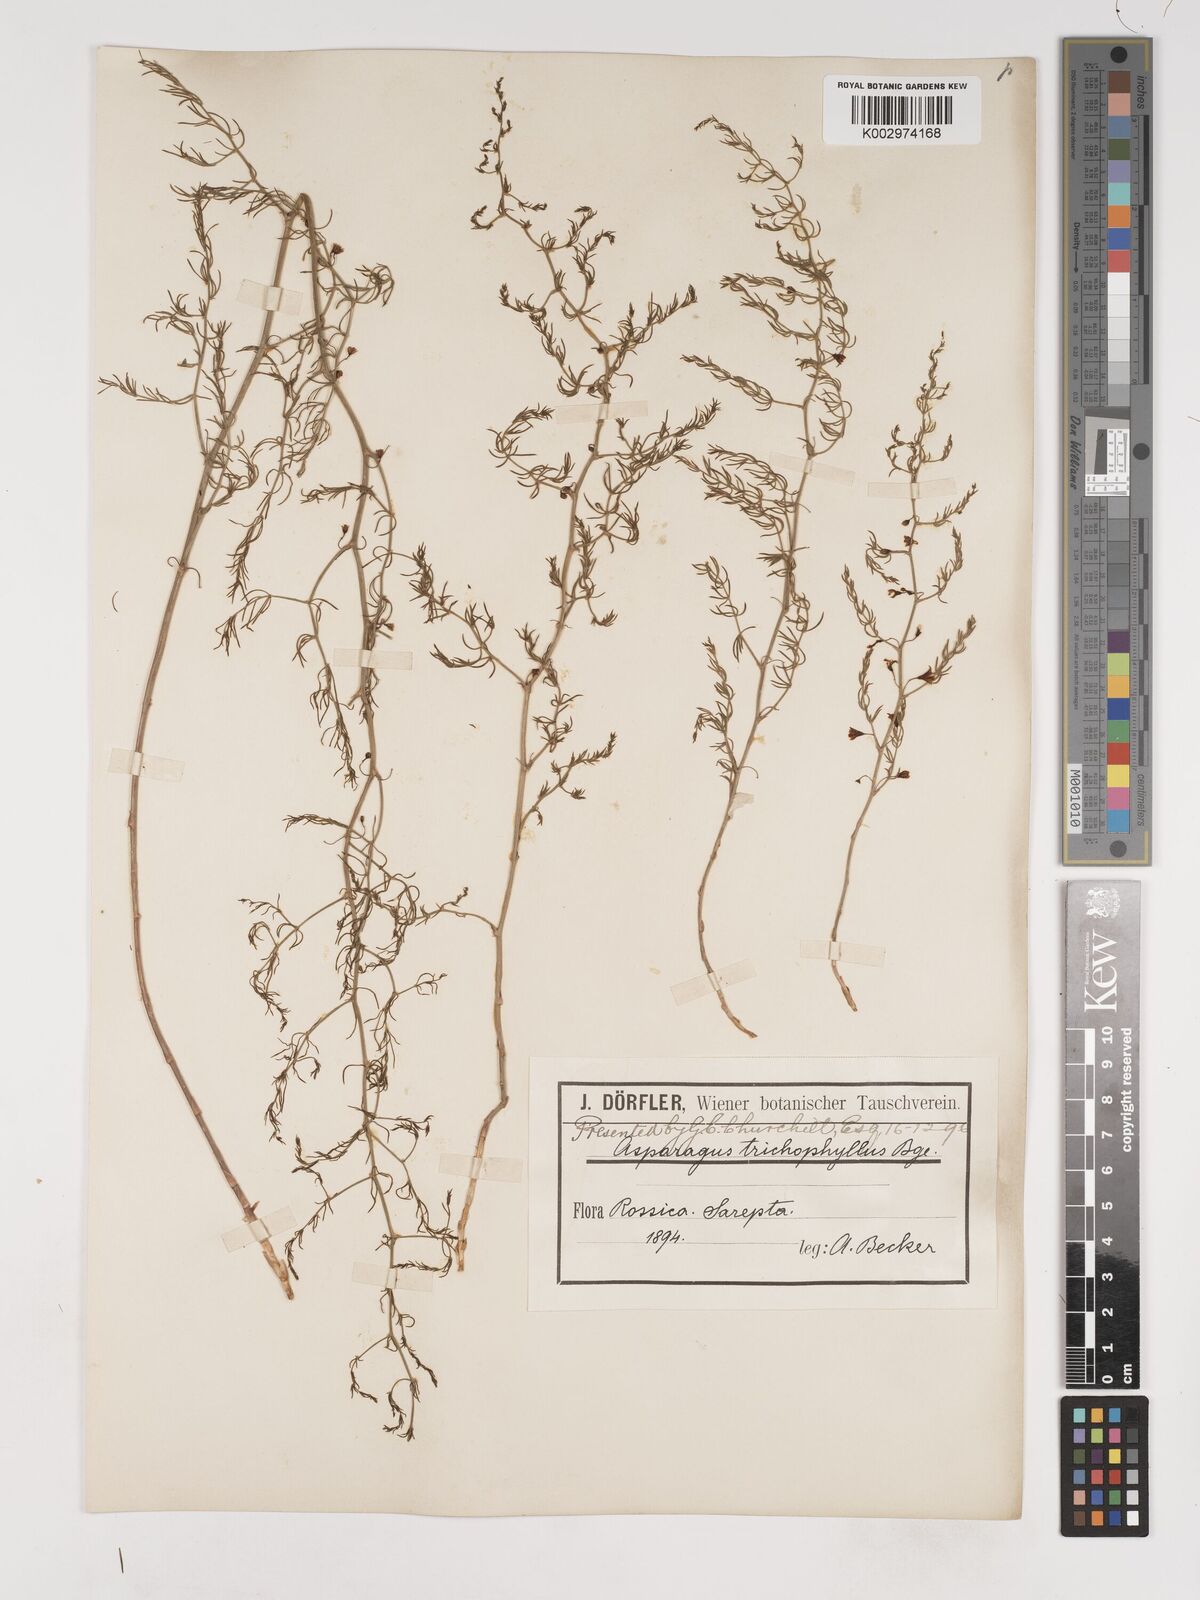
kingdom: Plantae
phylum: Tracheophyta
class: Liliopsida
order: Asparagales
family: Asparagaceae
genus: Asparagus
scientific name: Asparagus brachyphyllus
